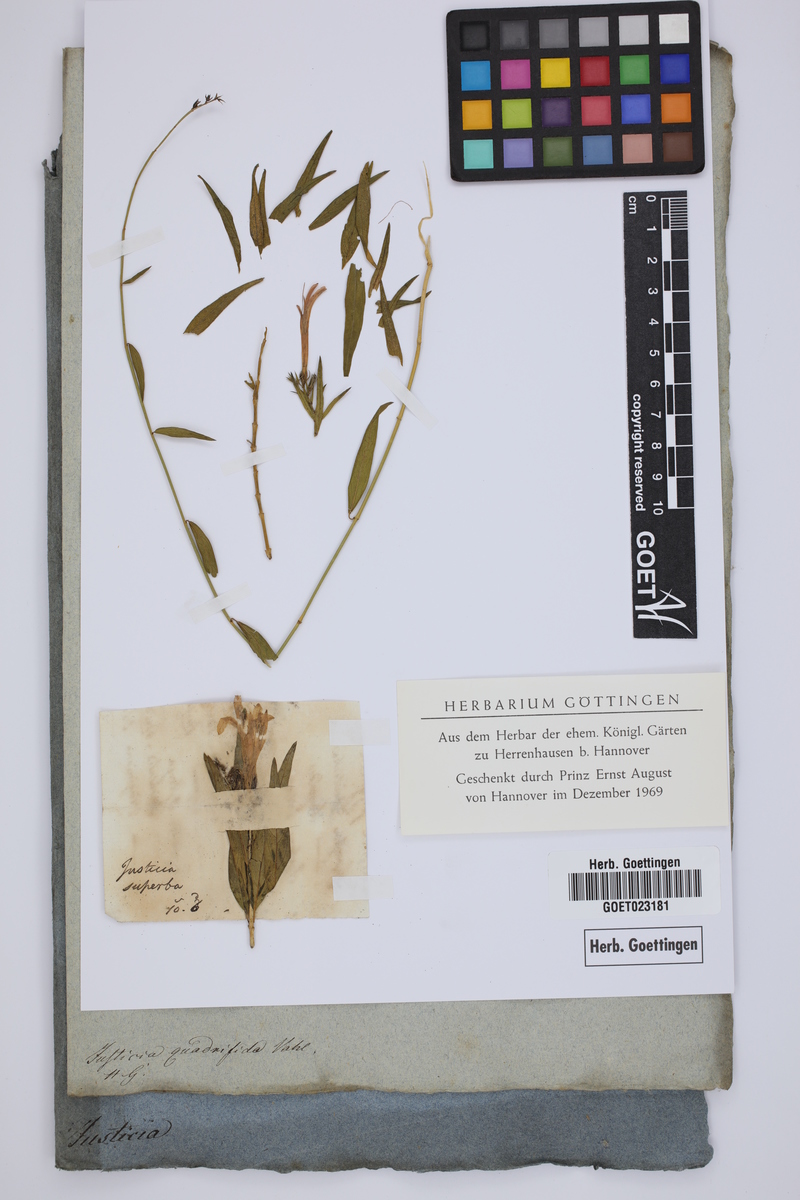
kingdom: Plantae
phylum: Tracheophyta
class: Magnoliopsida
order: Lamiales
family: Acanthaceae
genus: Anisacanthus
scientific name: Anisacanthus quadrifidus
